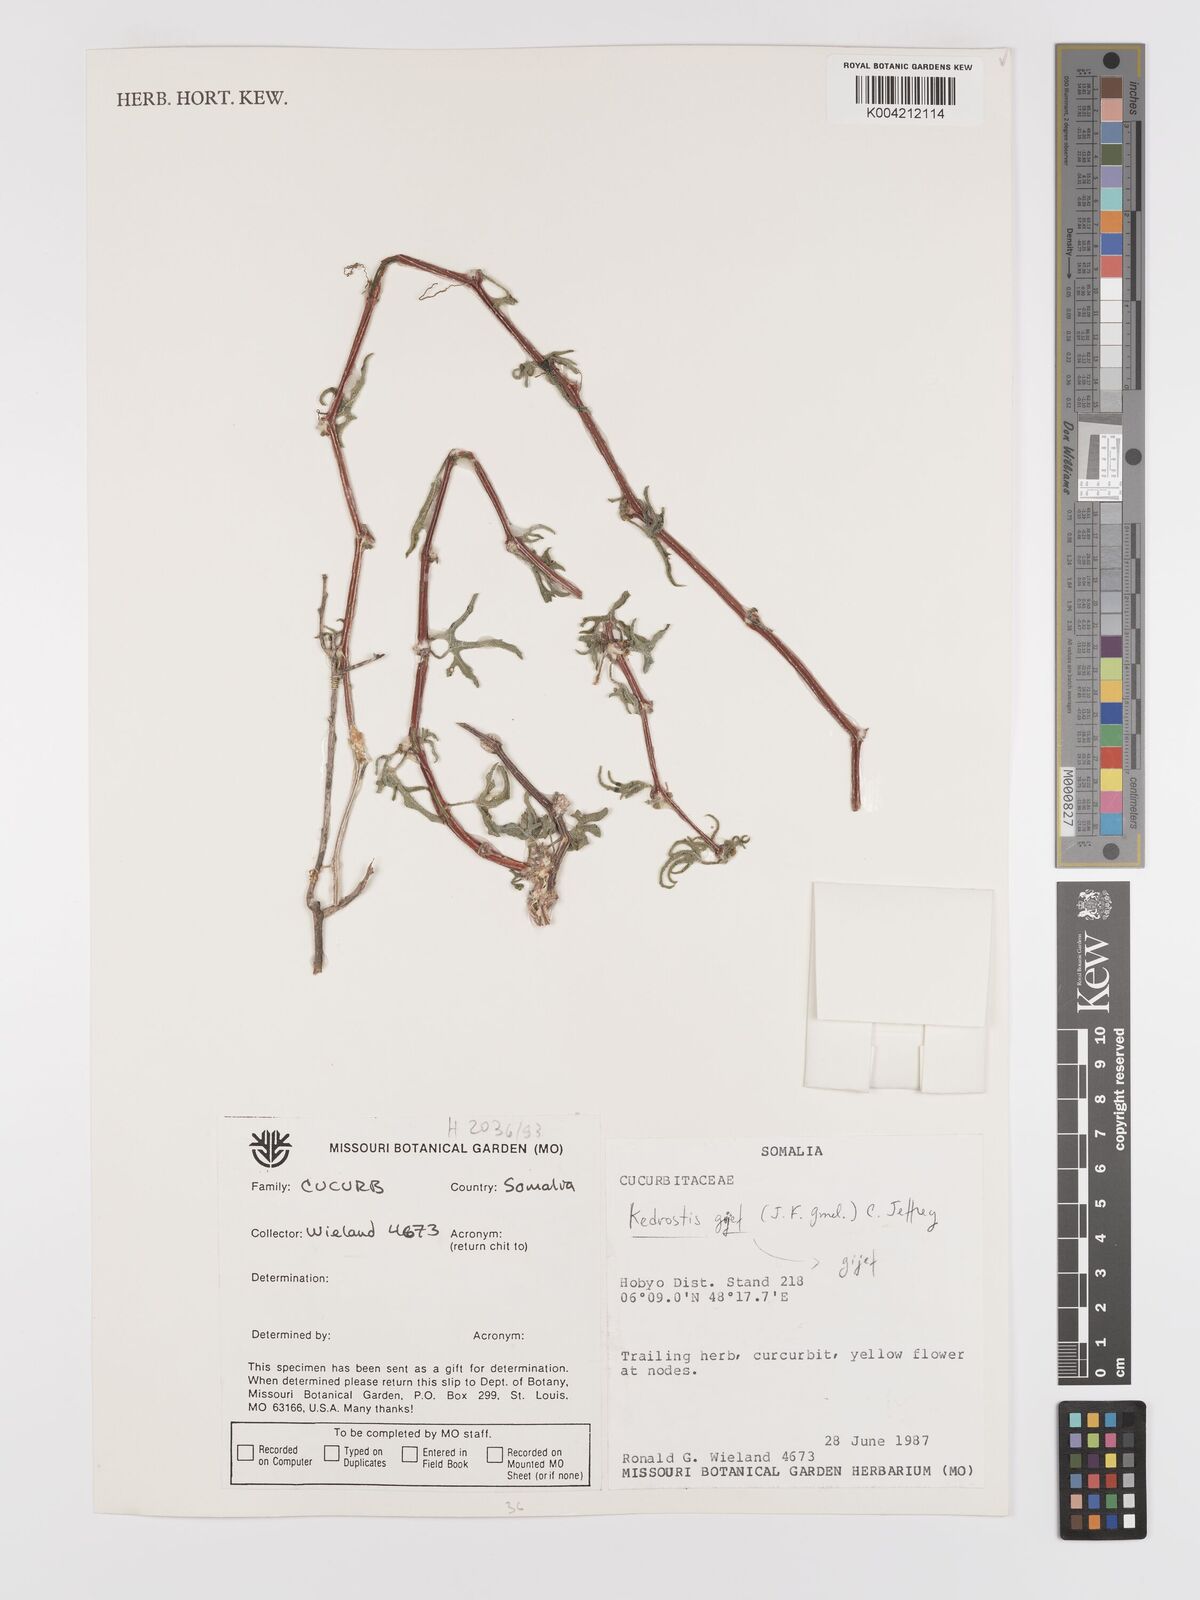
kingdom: Plantae
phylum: Tracheophyta
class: Magnoliopsida
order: Cucurbitales
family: Cucurbitaceae
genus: Kedrostis
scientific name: Kedrostis gijef
